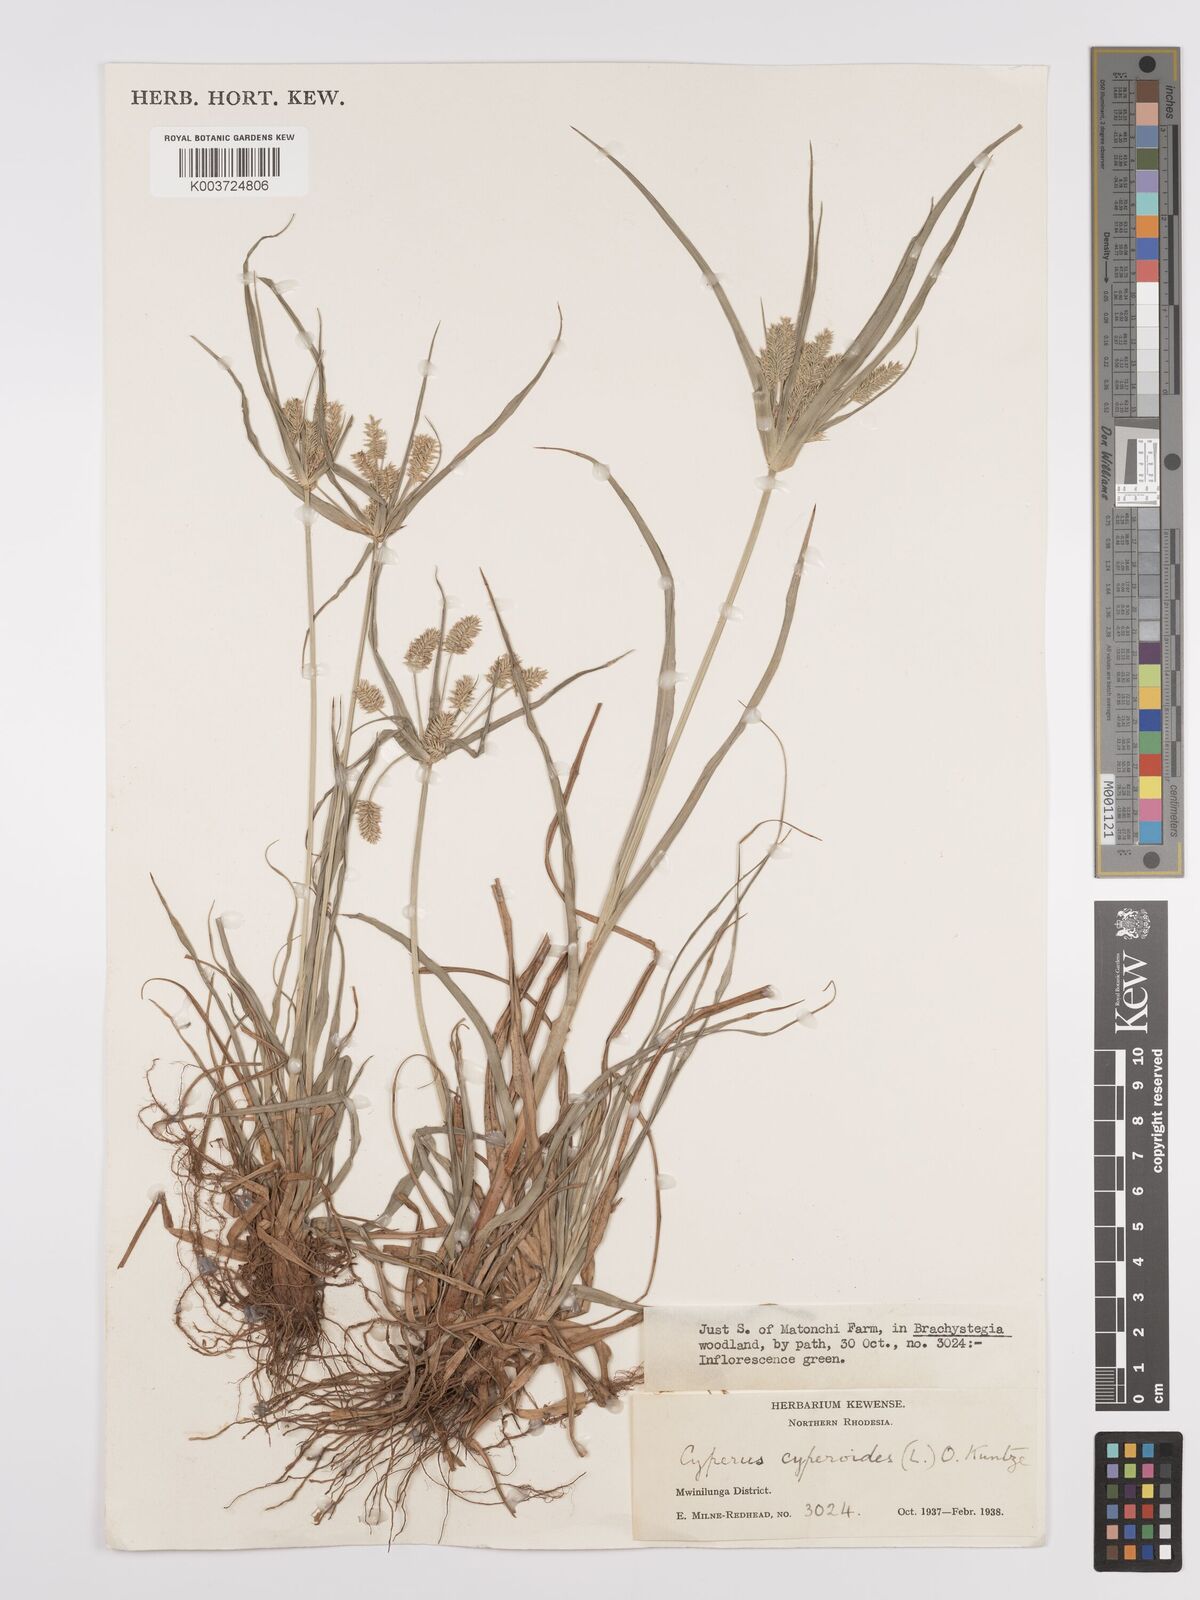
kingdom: Plantae
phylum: Tracheophyta
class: Liliopsida
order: Poales
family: Cyperaceae
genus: Cyperus
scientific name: Cyperus cyperoides
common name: Pacific island flat sedge
